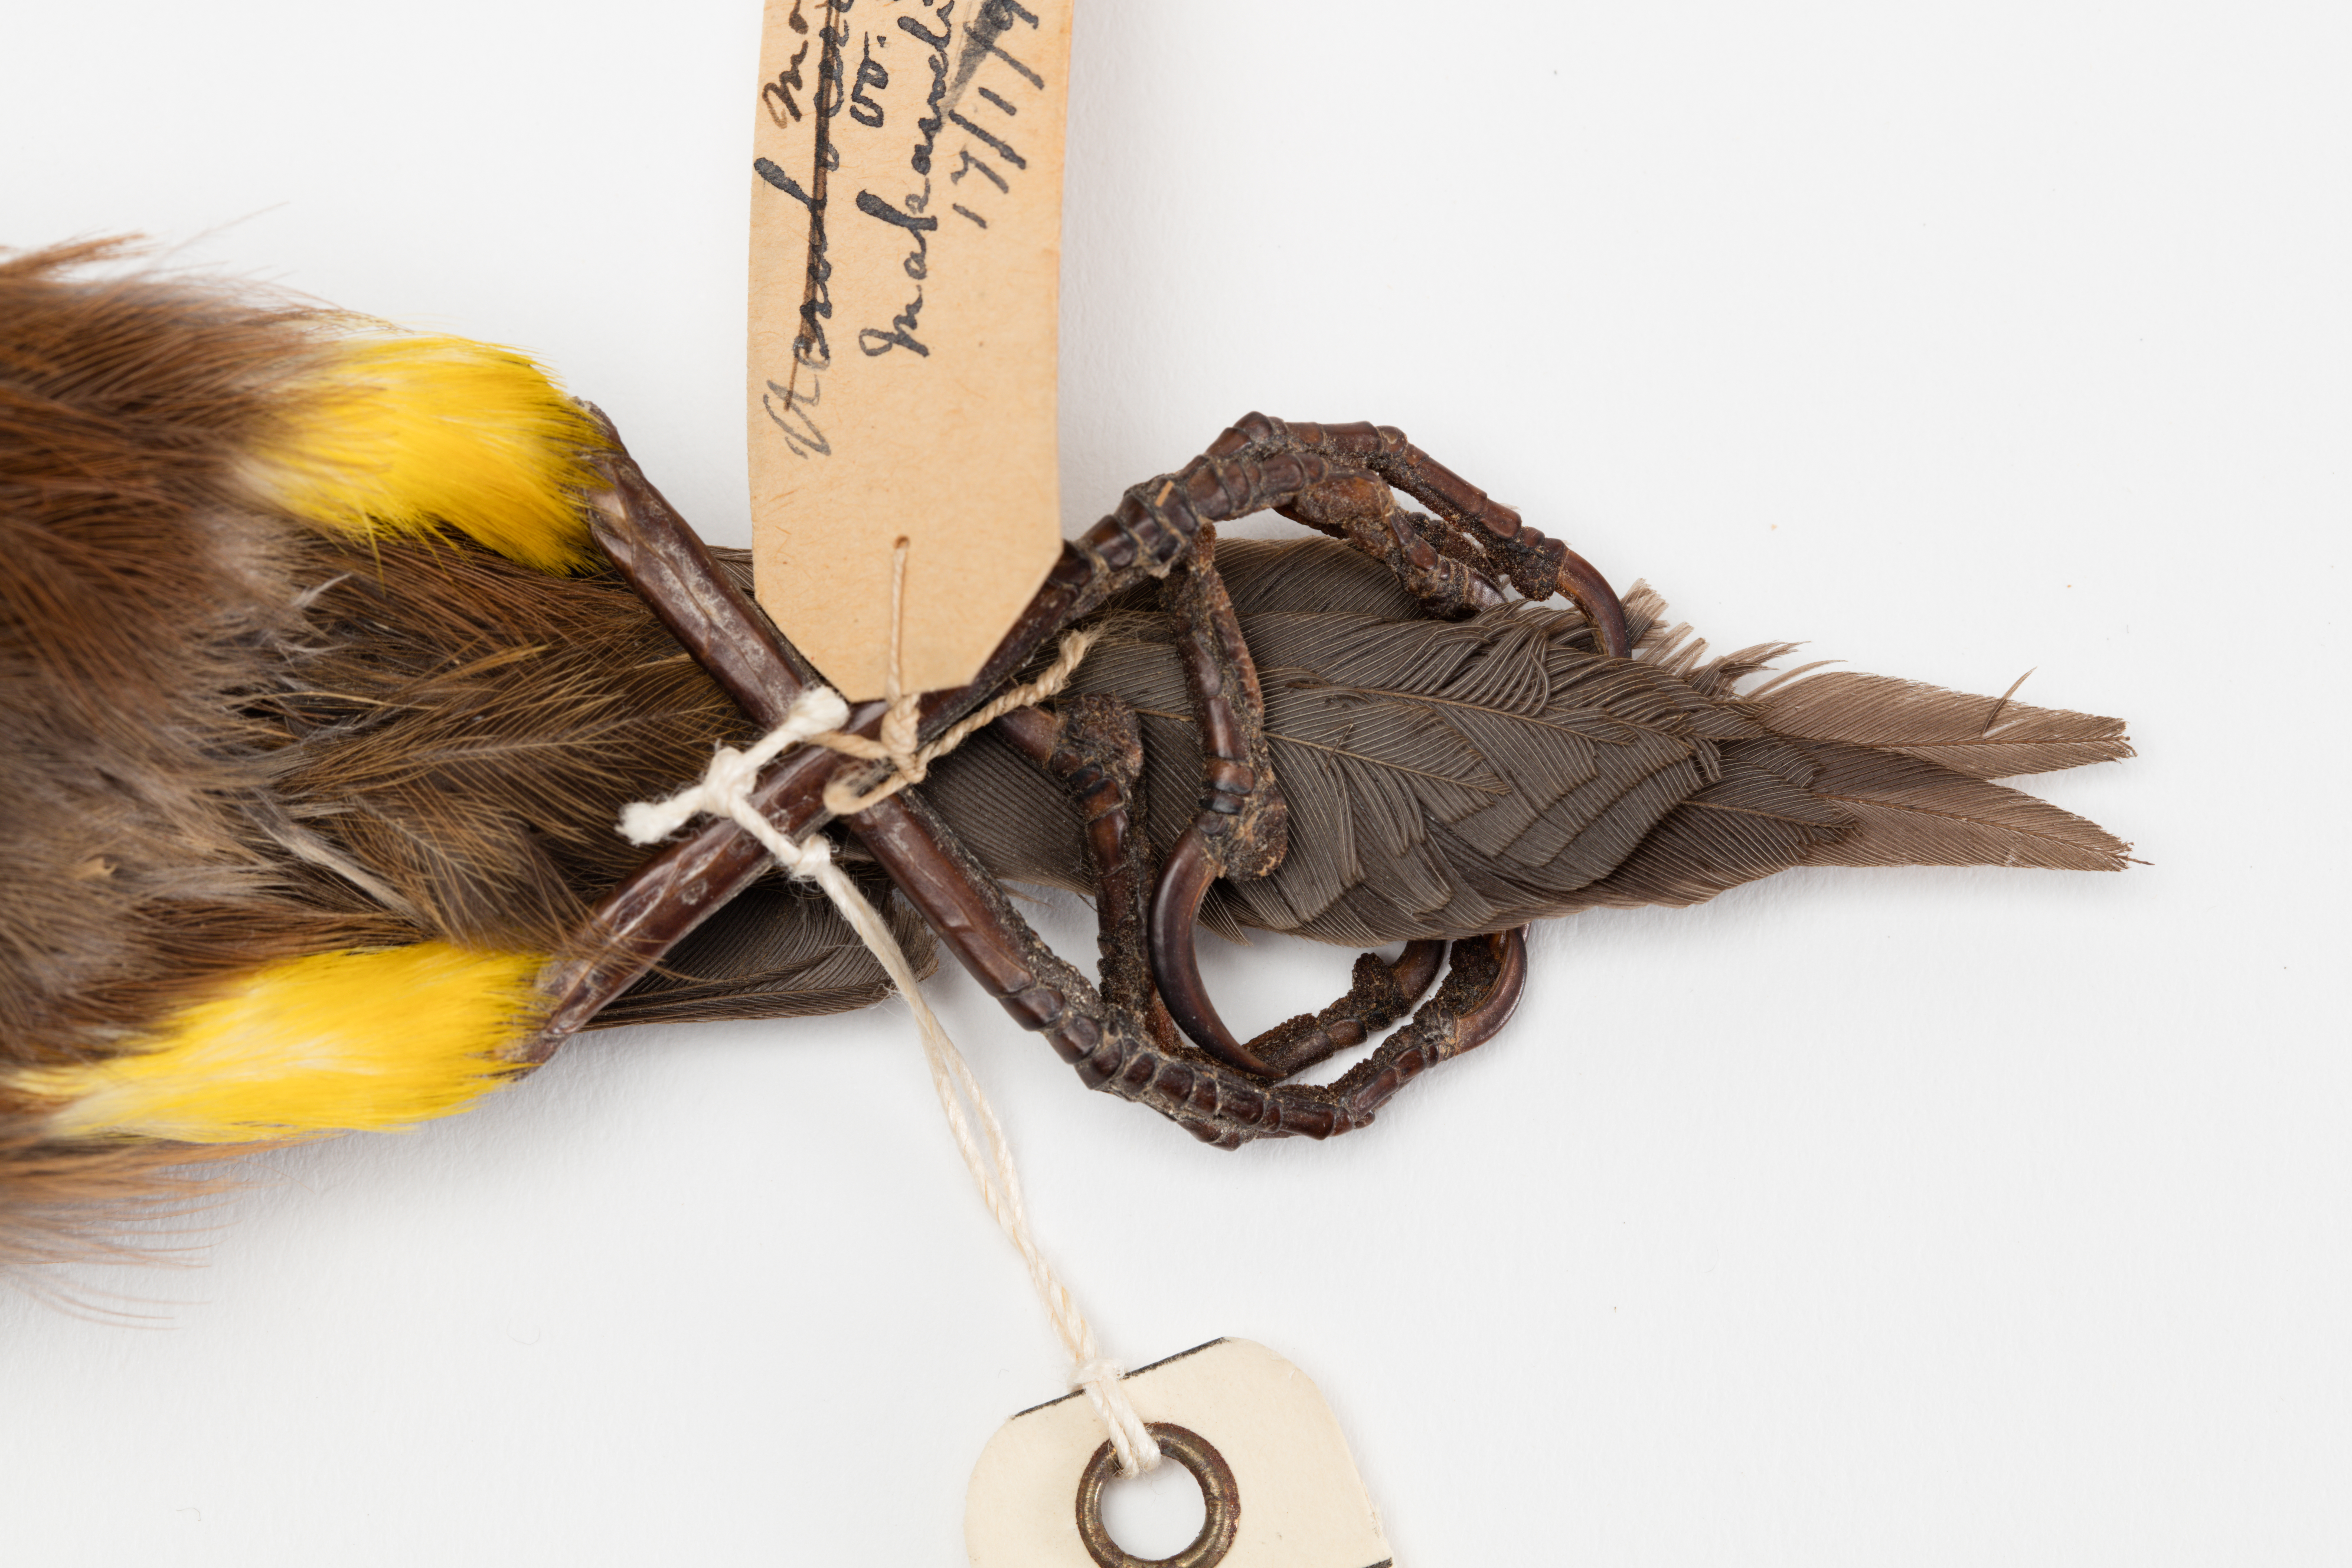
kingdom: Animalia
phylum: Chordata
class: Aves
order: Passeriformes
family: Mohoidae
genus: Moho
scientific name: Moho braccatus
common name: Kauai oo
